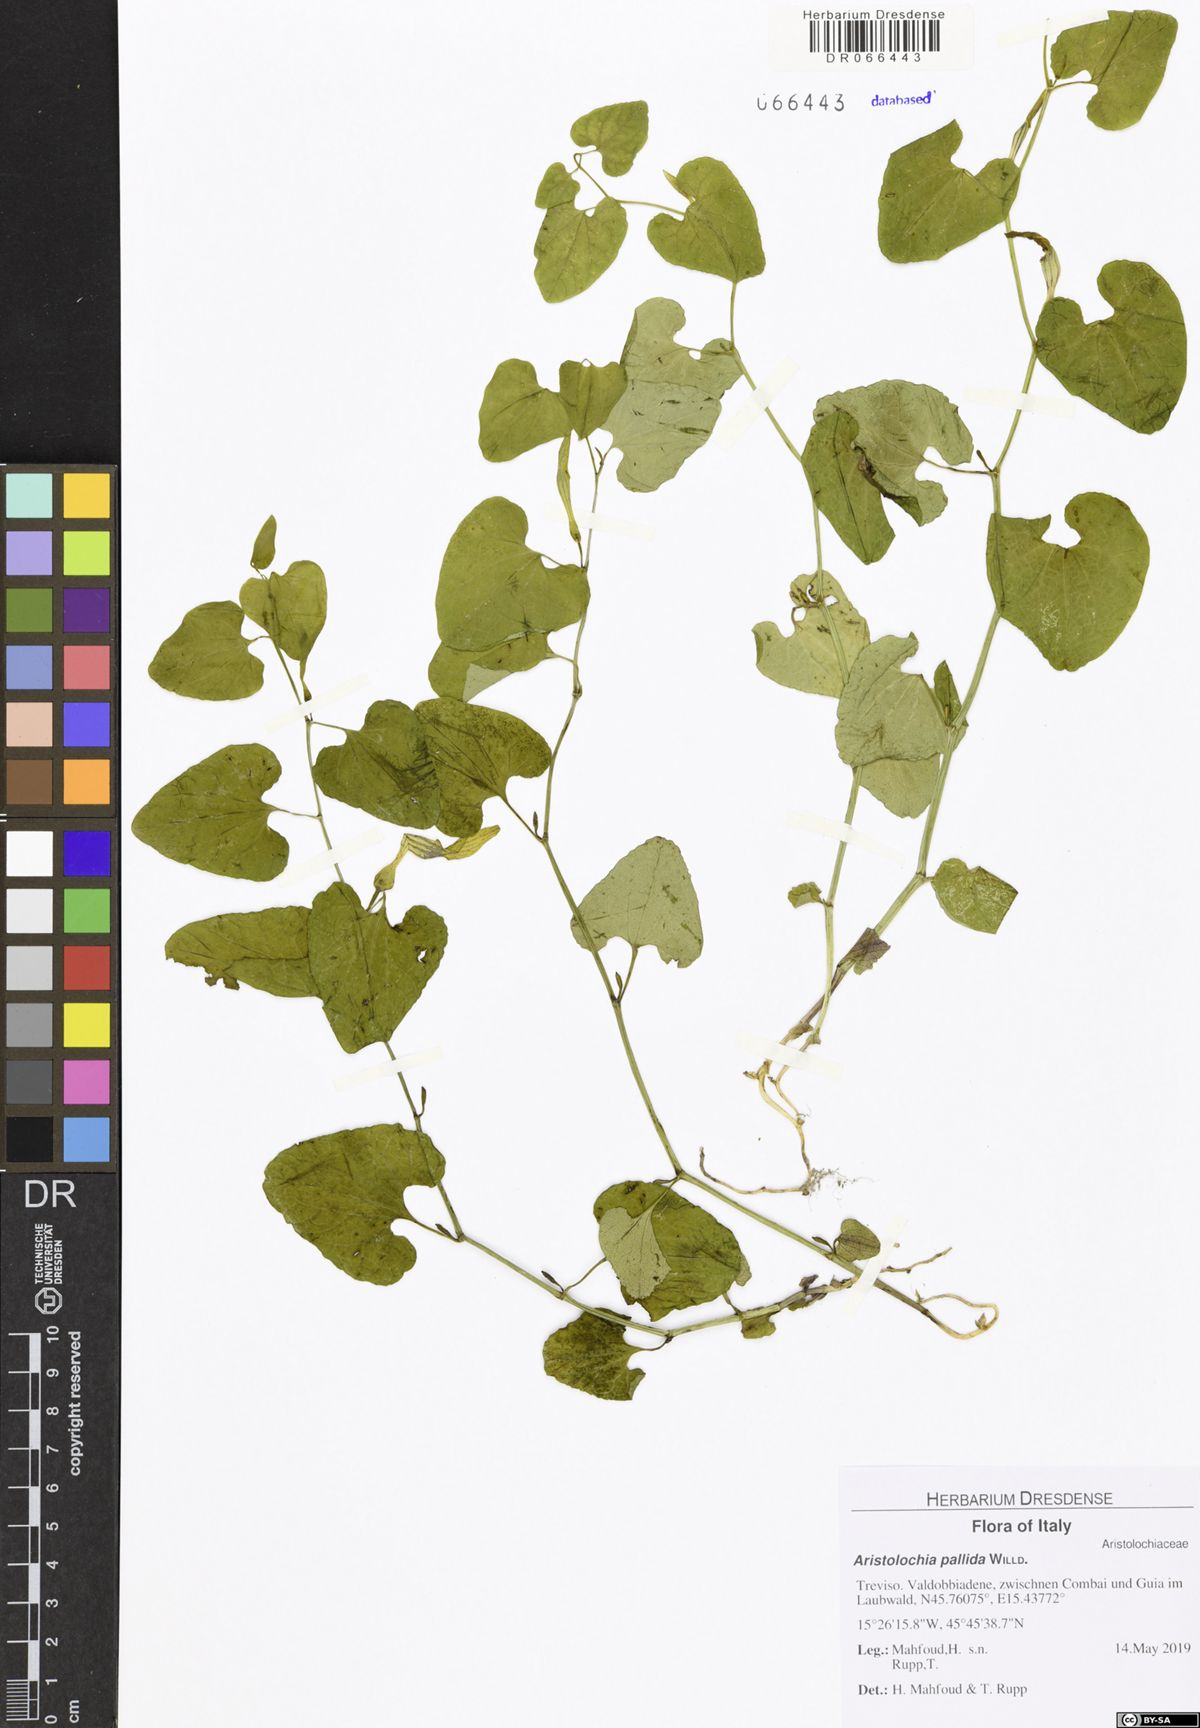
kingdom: Plantae
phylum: Tracheophyta
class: Magnoliopsida
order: Piperales
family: Aristolochiaceae
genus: Aristolochia
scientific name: Aristolochia pallida
